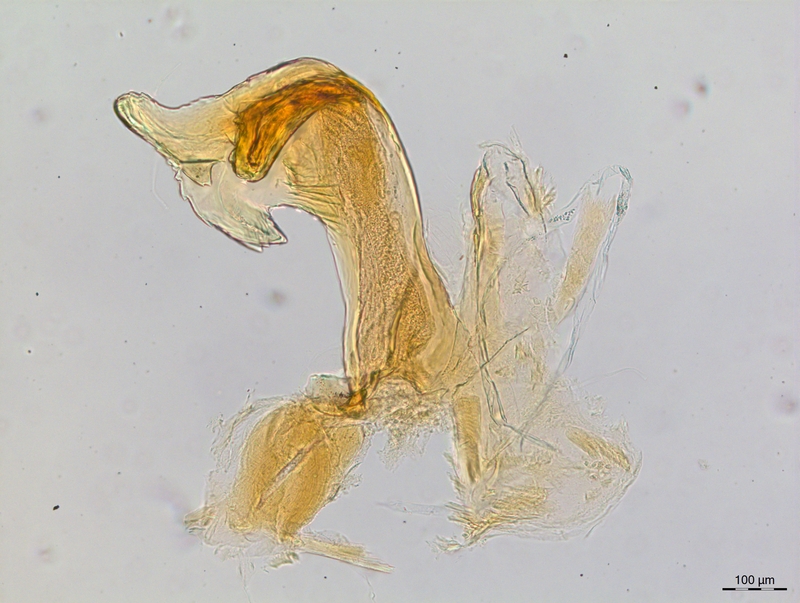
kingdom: Animalia
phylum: Arthropoda
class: Diplopoda
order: Chordeumatida
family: Craspedosomatidae
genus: Craspedosoma
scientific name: Craspedosoma rawlinsii
